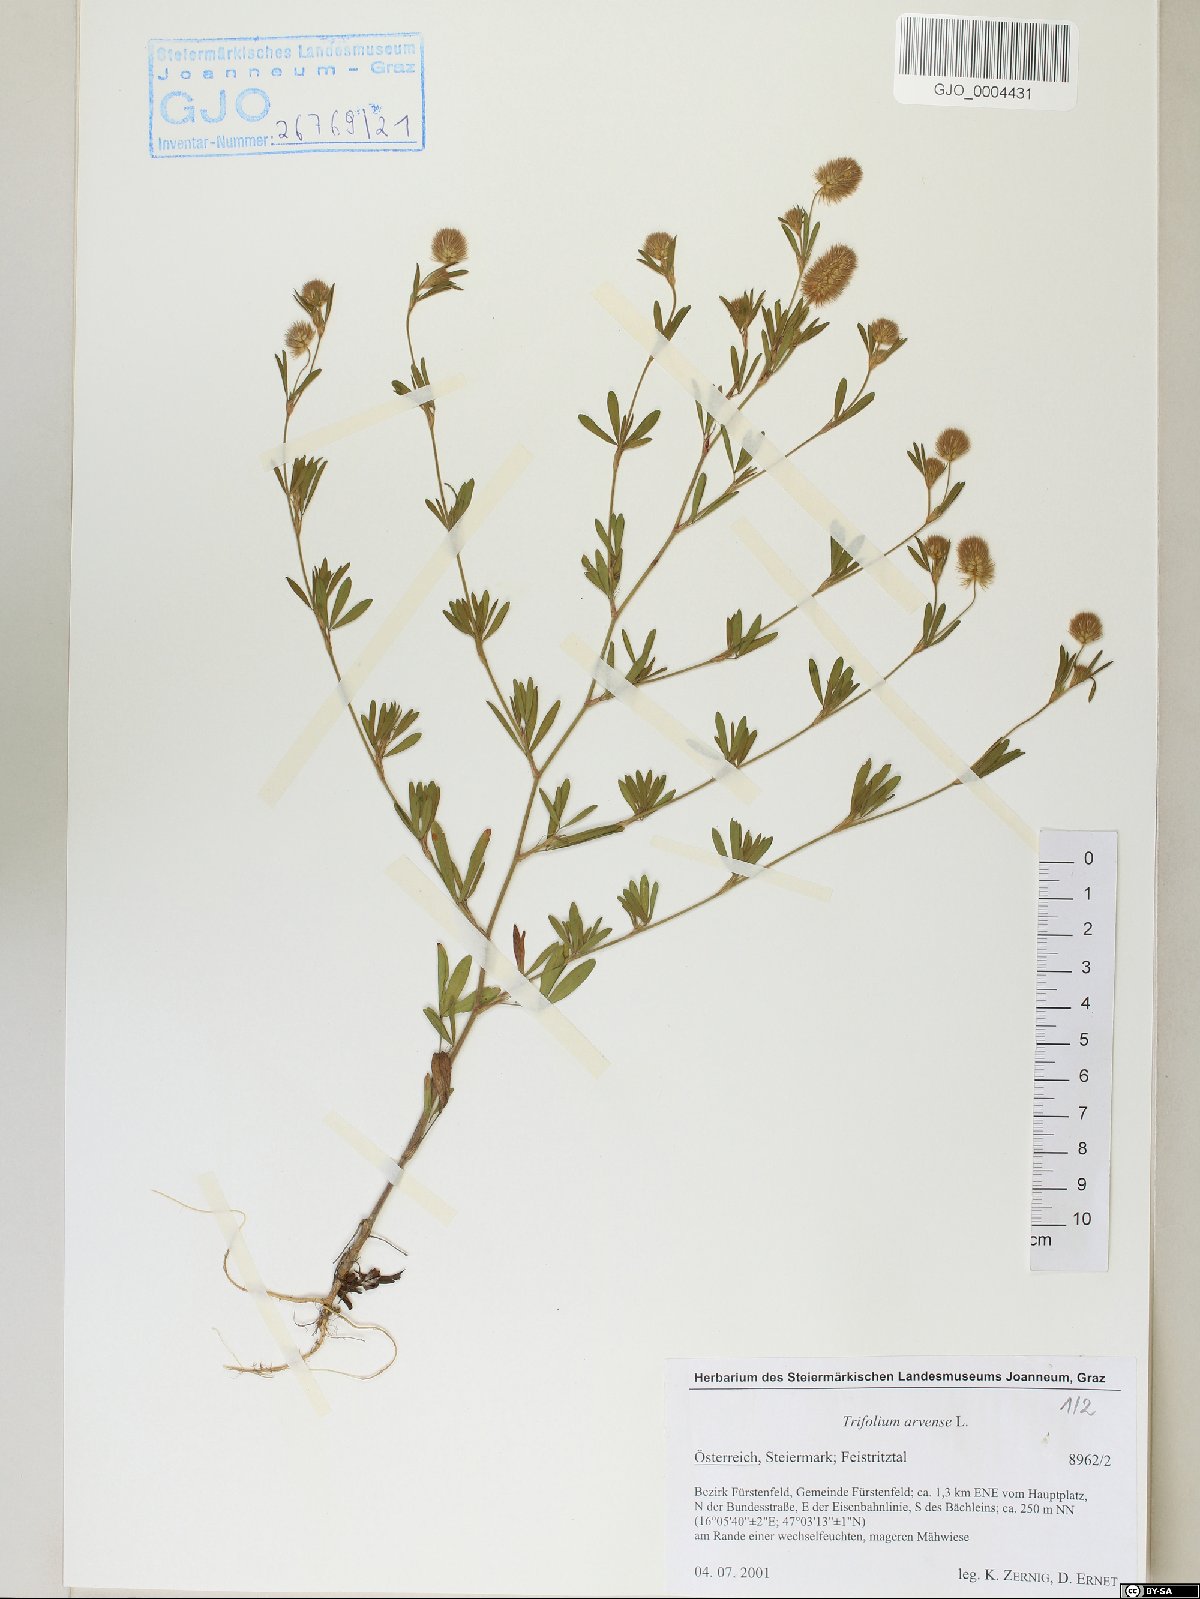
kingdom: Plantae
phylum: Tracheophyta
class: Magnoliopsida
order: Fabales
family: Fabaceae
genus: Trifolium
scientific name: Trifolium arvense
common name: Hare's-foot clover
